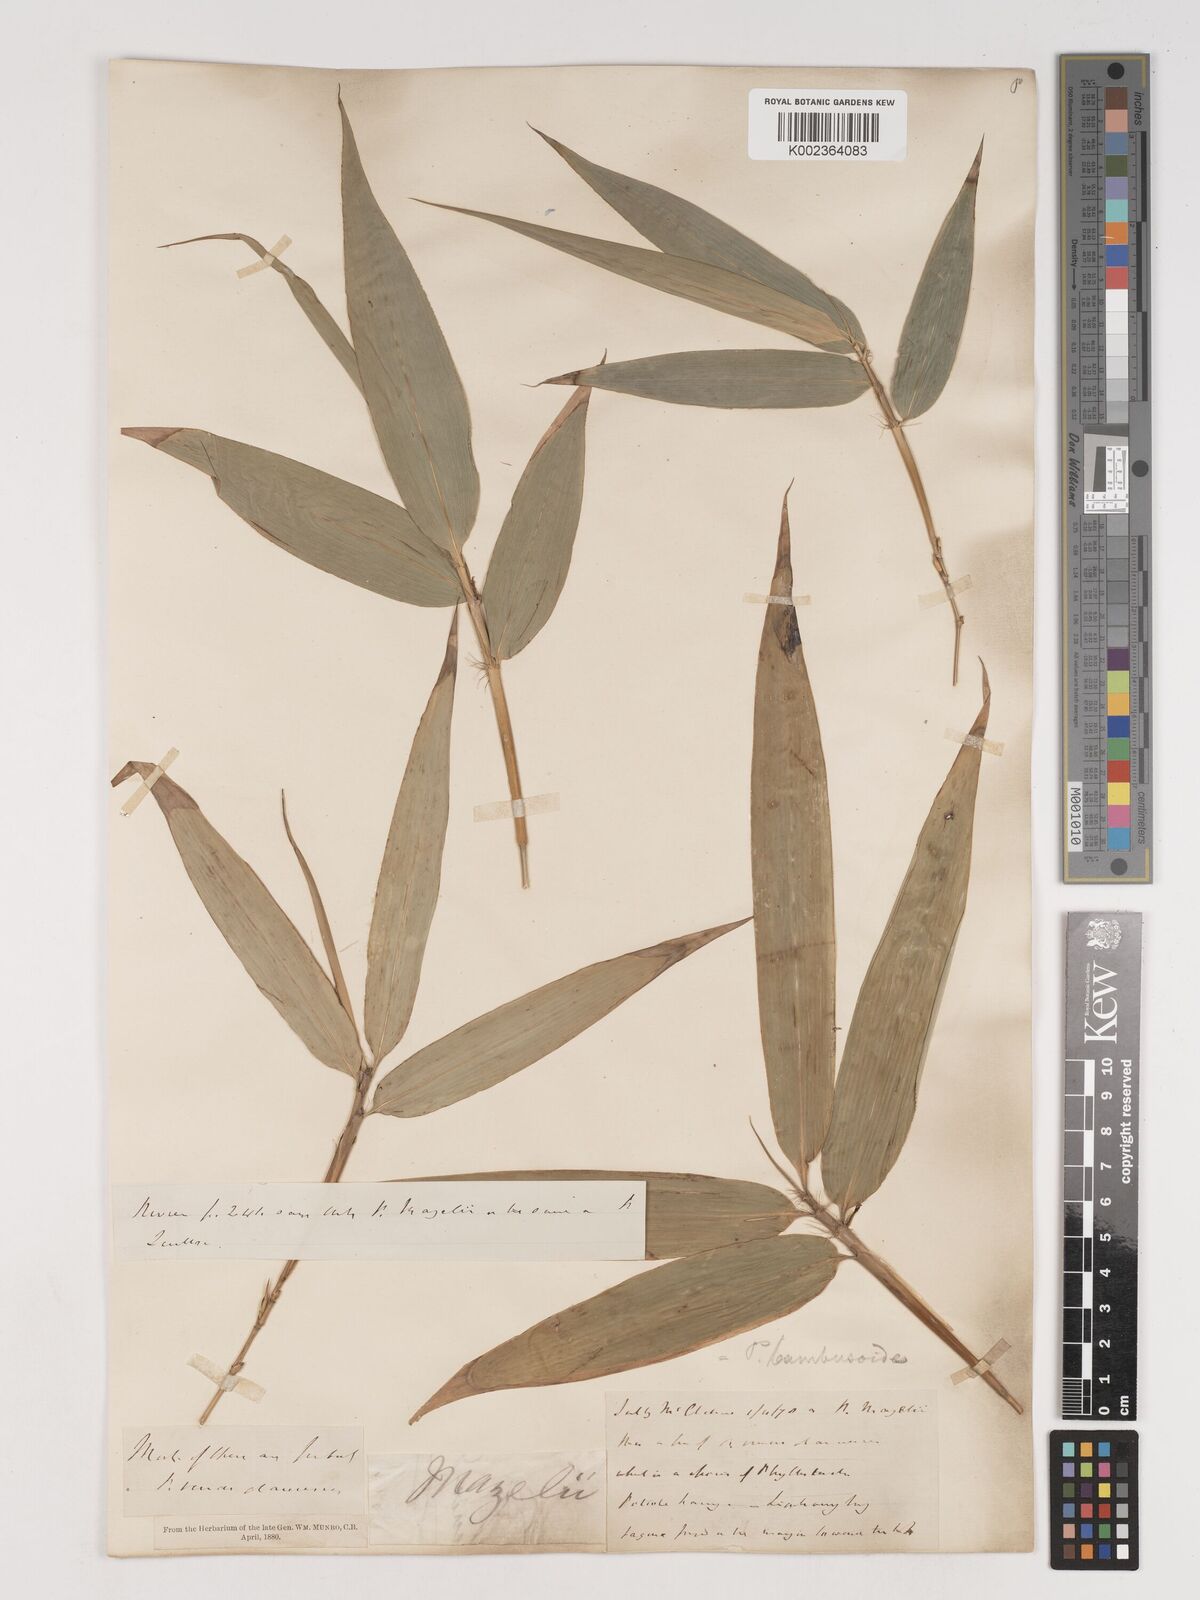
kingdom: Plantae
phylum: Tracheophyta
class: Liliopsida
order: Poales
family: Poaceae
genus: Phyllostachys
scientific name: Phyllostachys viridiglaucescens
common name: Greenwax golden bamboo
